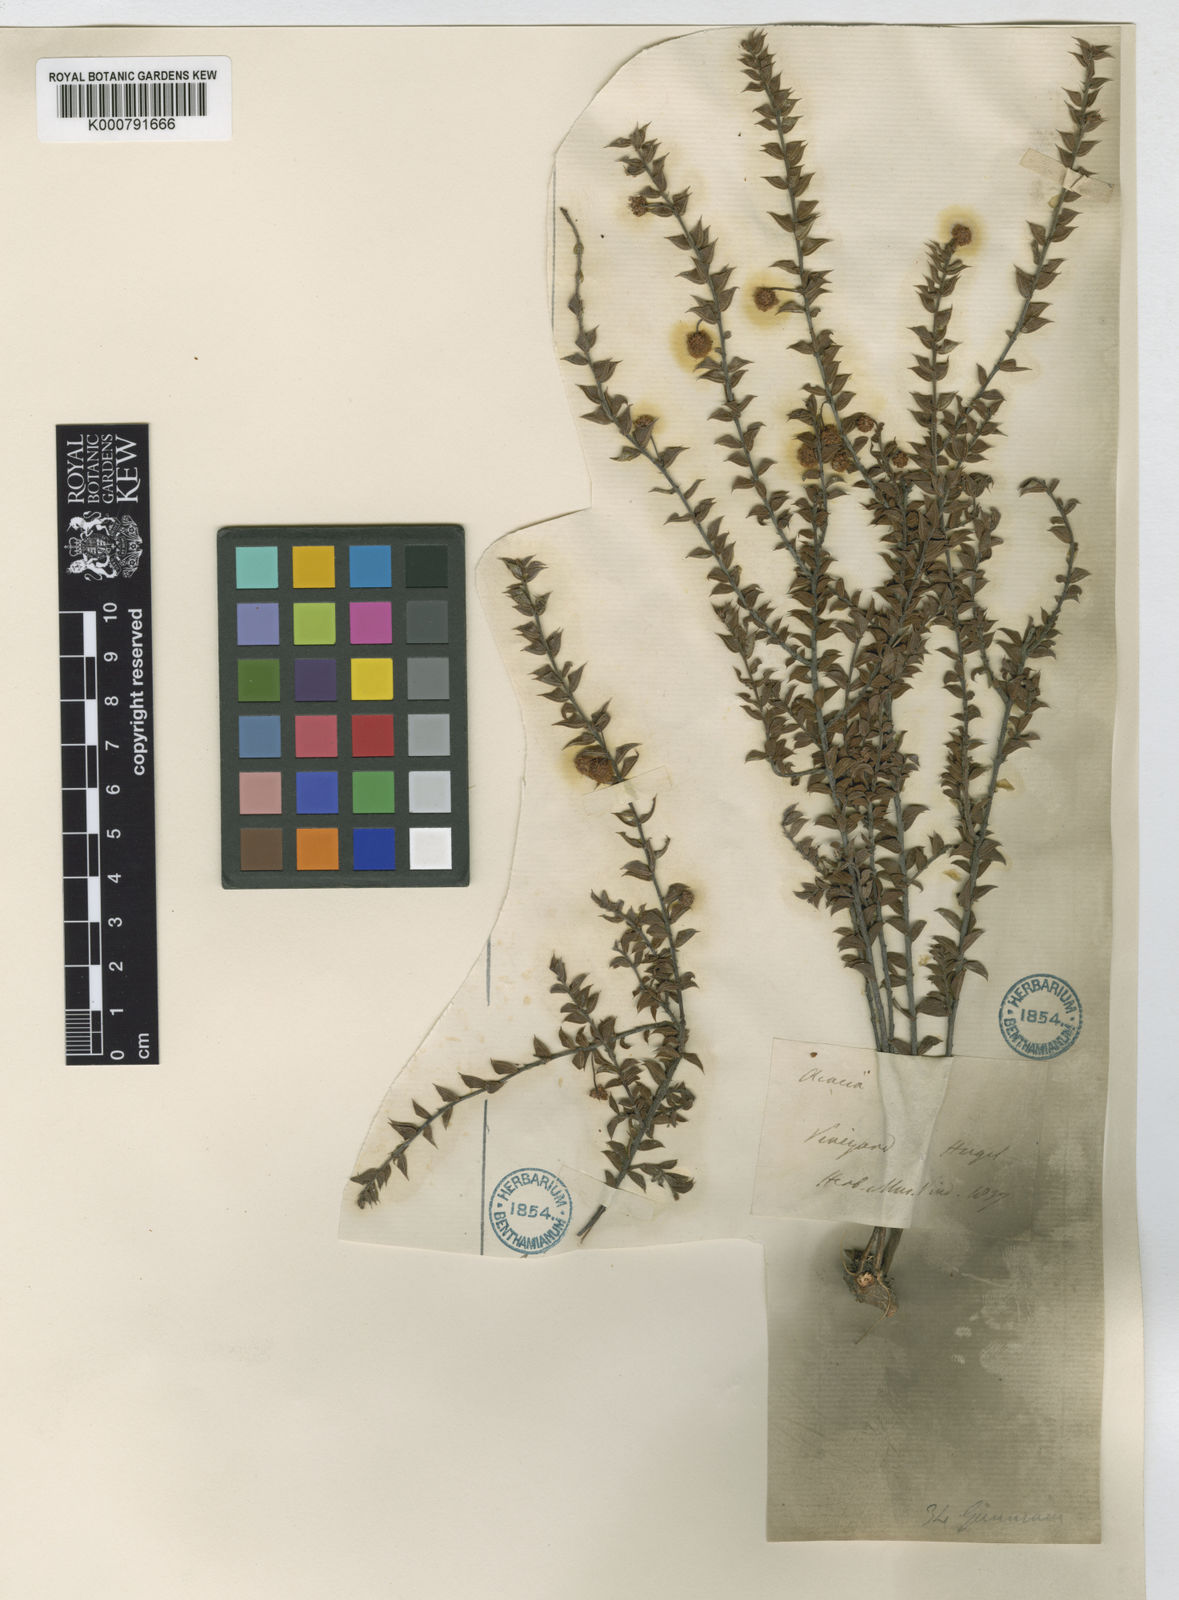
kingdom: Plantae
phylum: Tracheophyta
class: Magnoliopsida
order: Fabales
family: Fabaceae
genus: Acacia
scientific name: Acacia gunnii
